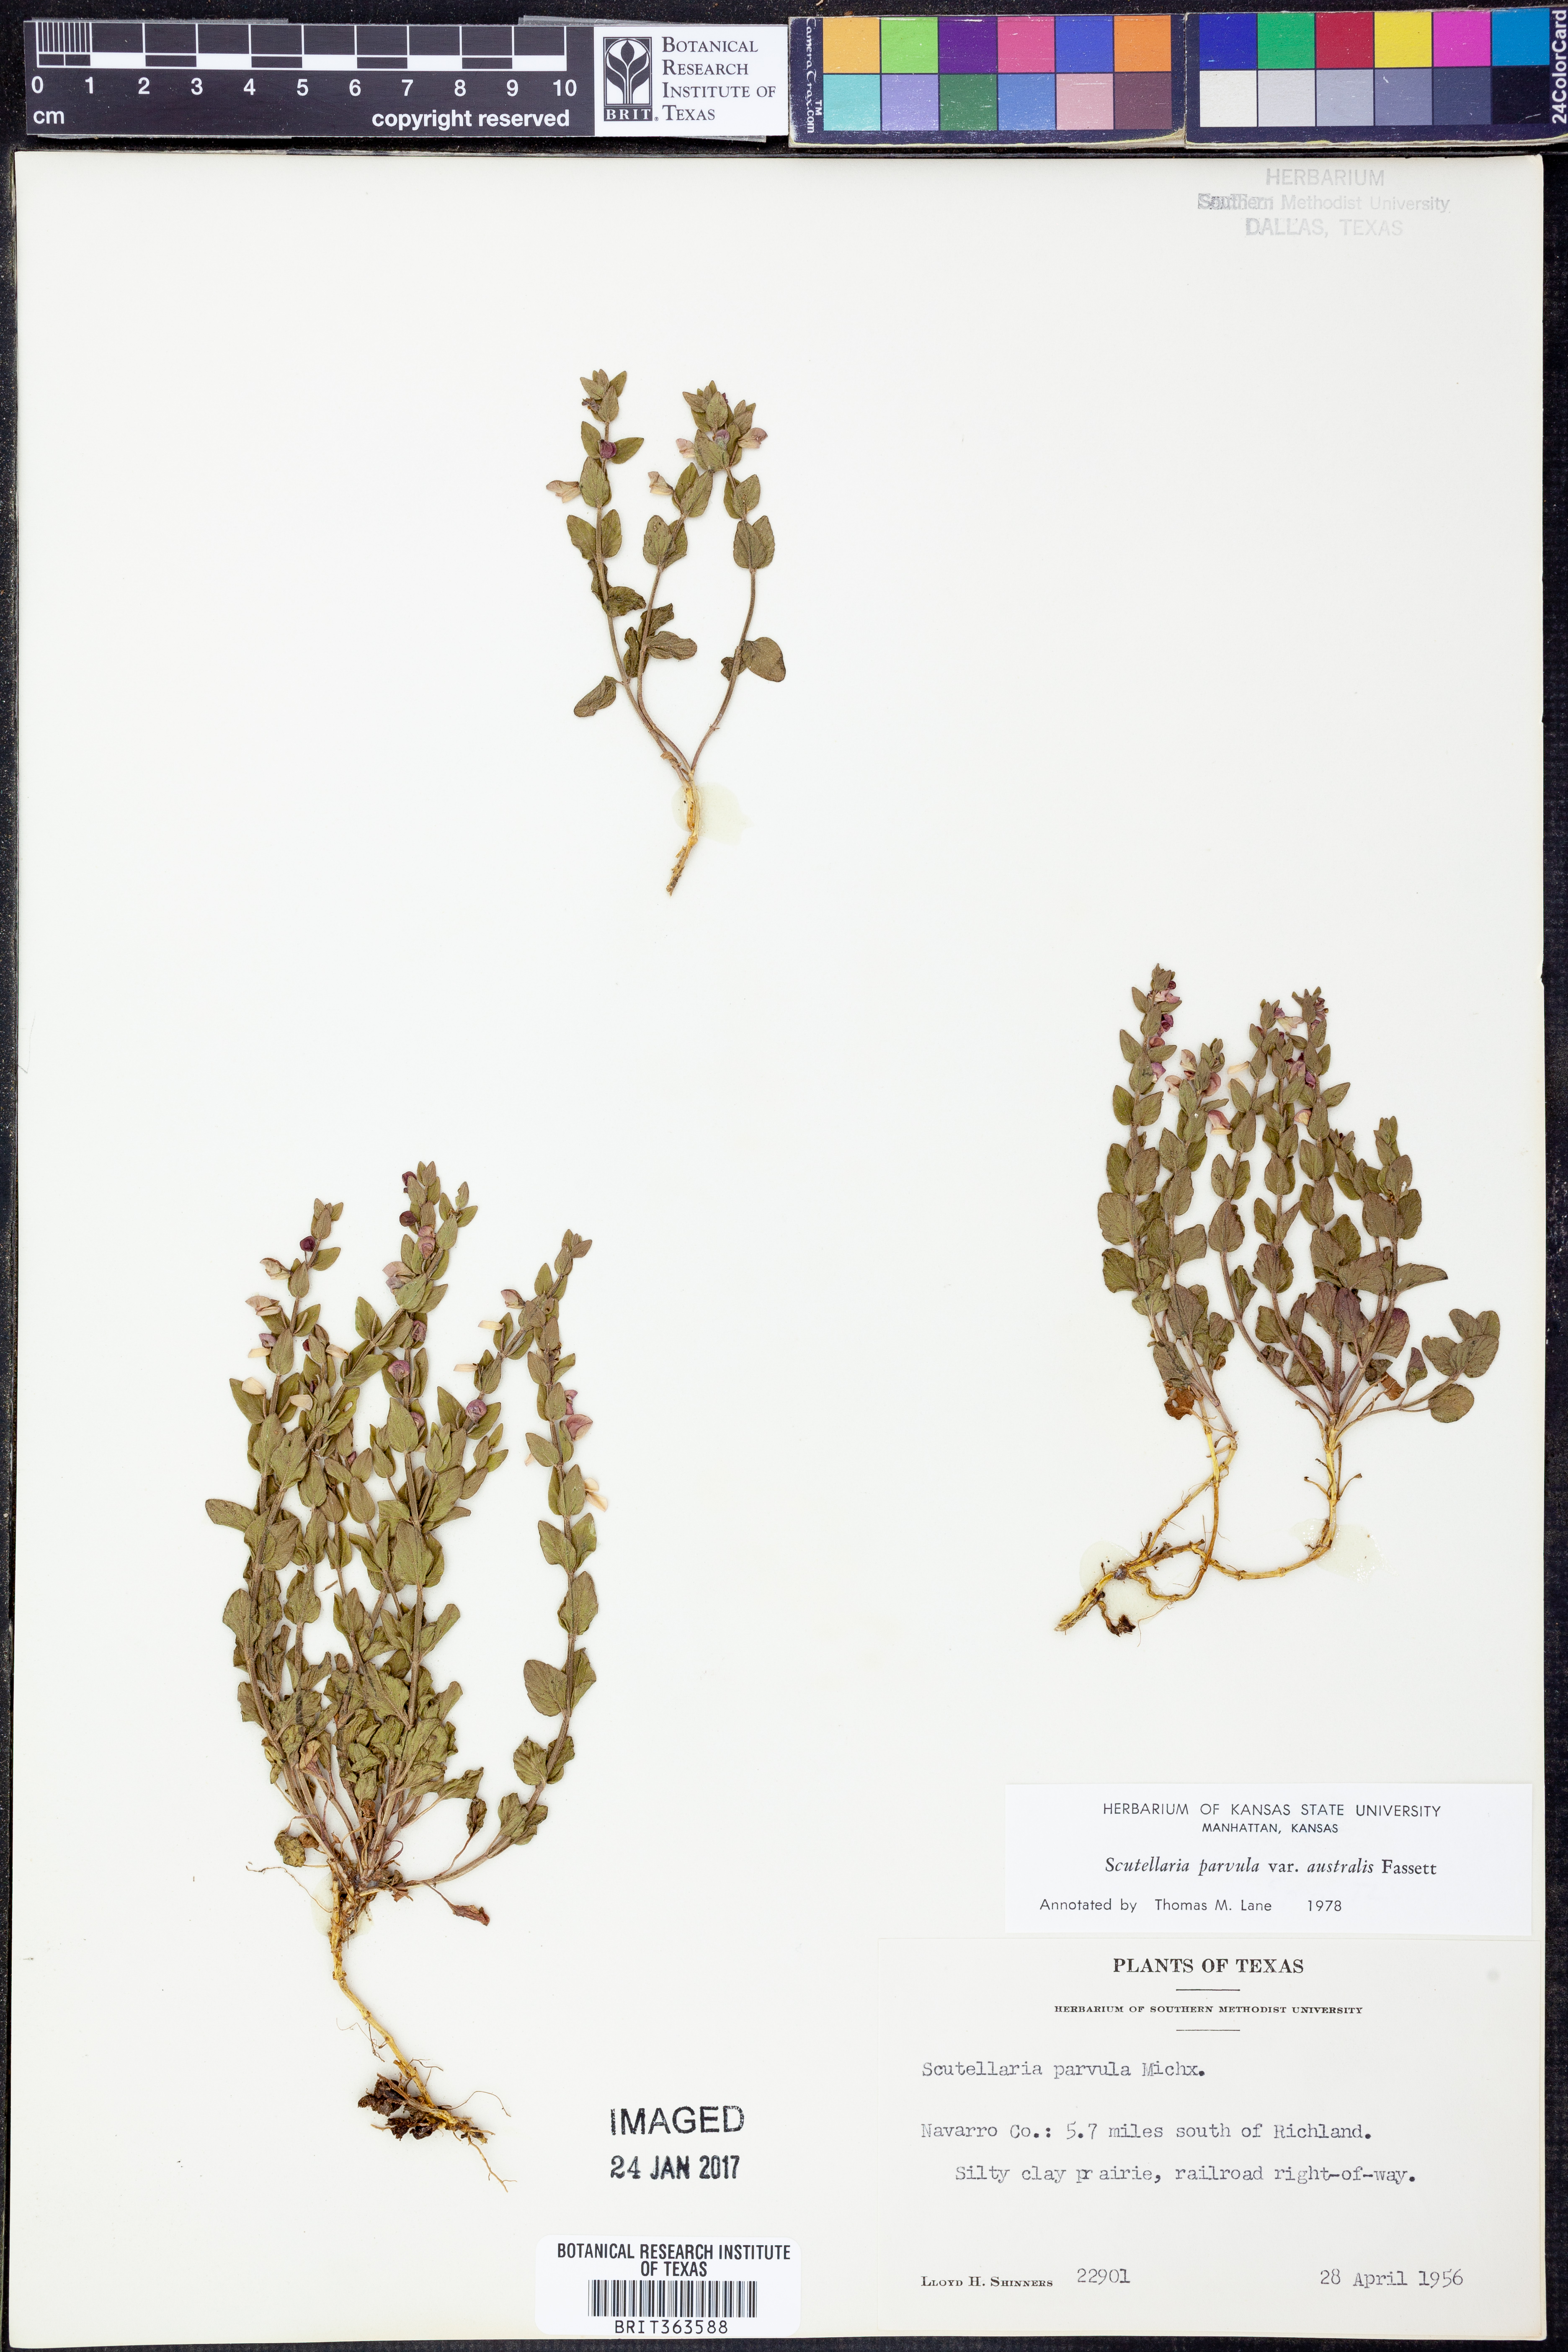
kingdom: Plantae
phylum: Tracheophyta
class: Magnoliopsida
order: Lamiales
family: Lamiaceae
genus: Scutellaria
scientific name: Scutellaria parvula
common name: Little scullcap
